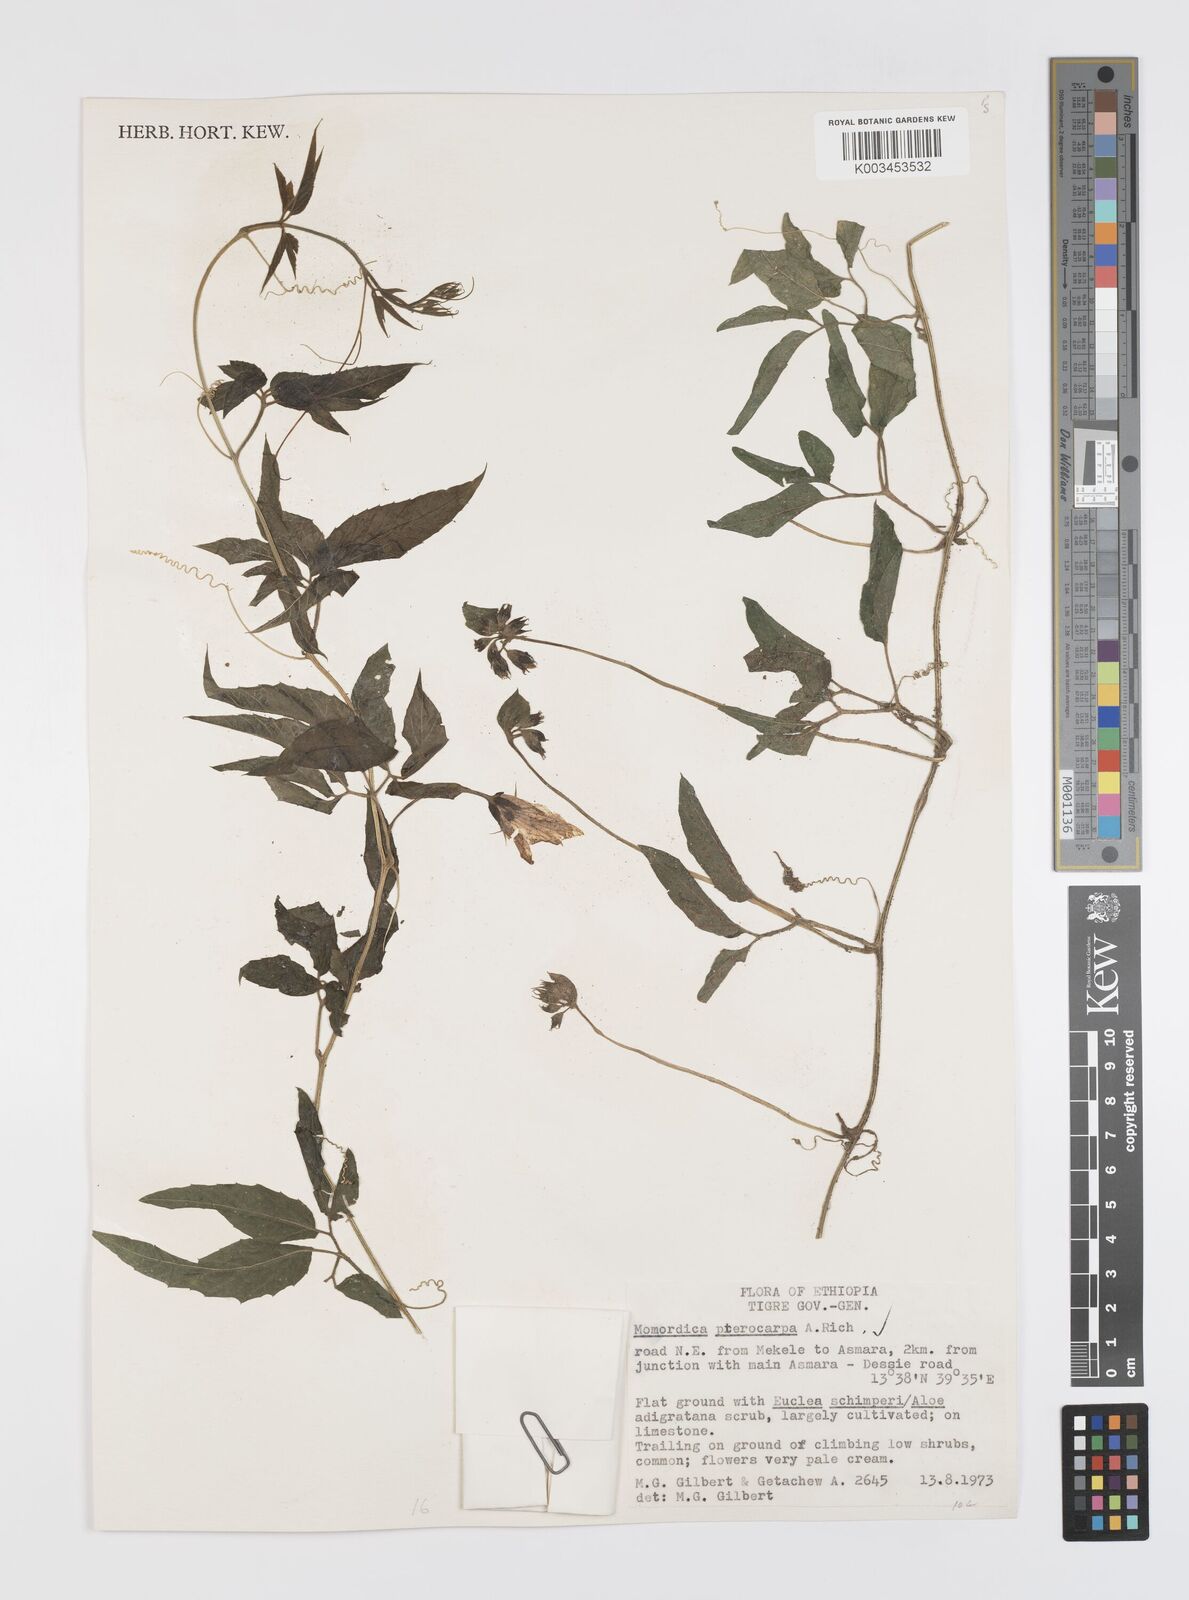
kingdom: Plantae
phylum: Tracheophyta
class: Magnoliopsida
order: Cucurbitales
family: Cucurbitaceae
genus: Momordica
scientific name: Momordica pterocarpa
